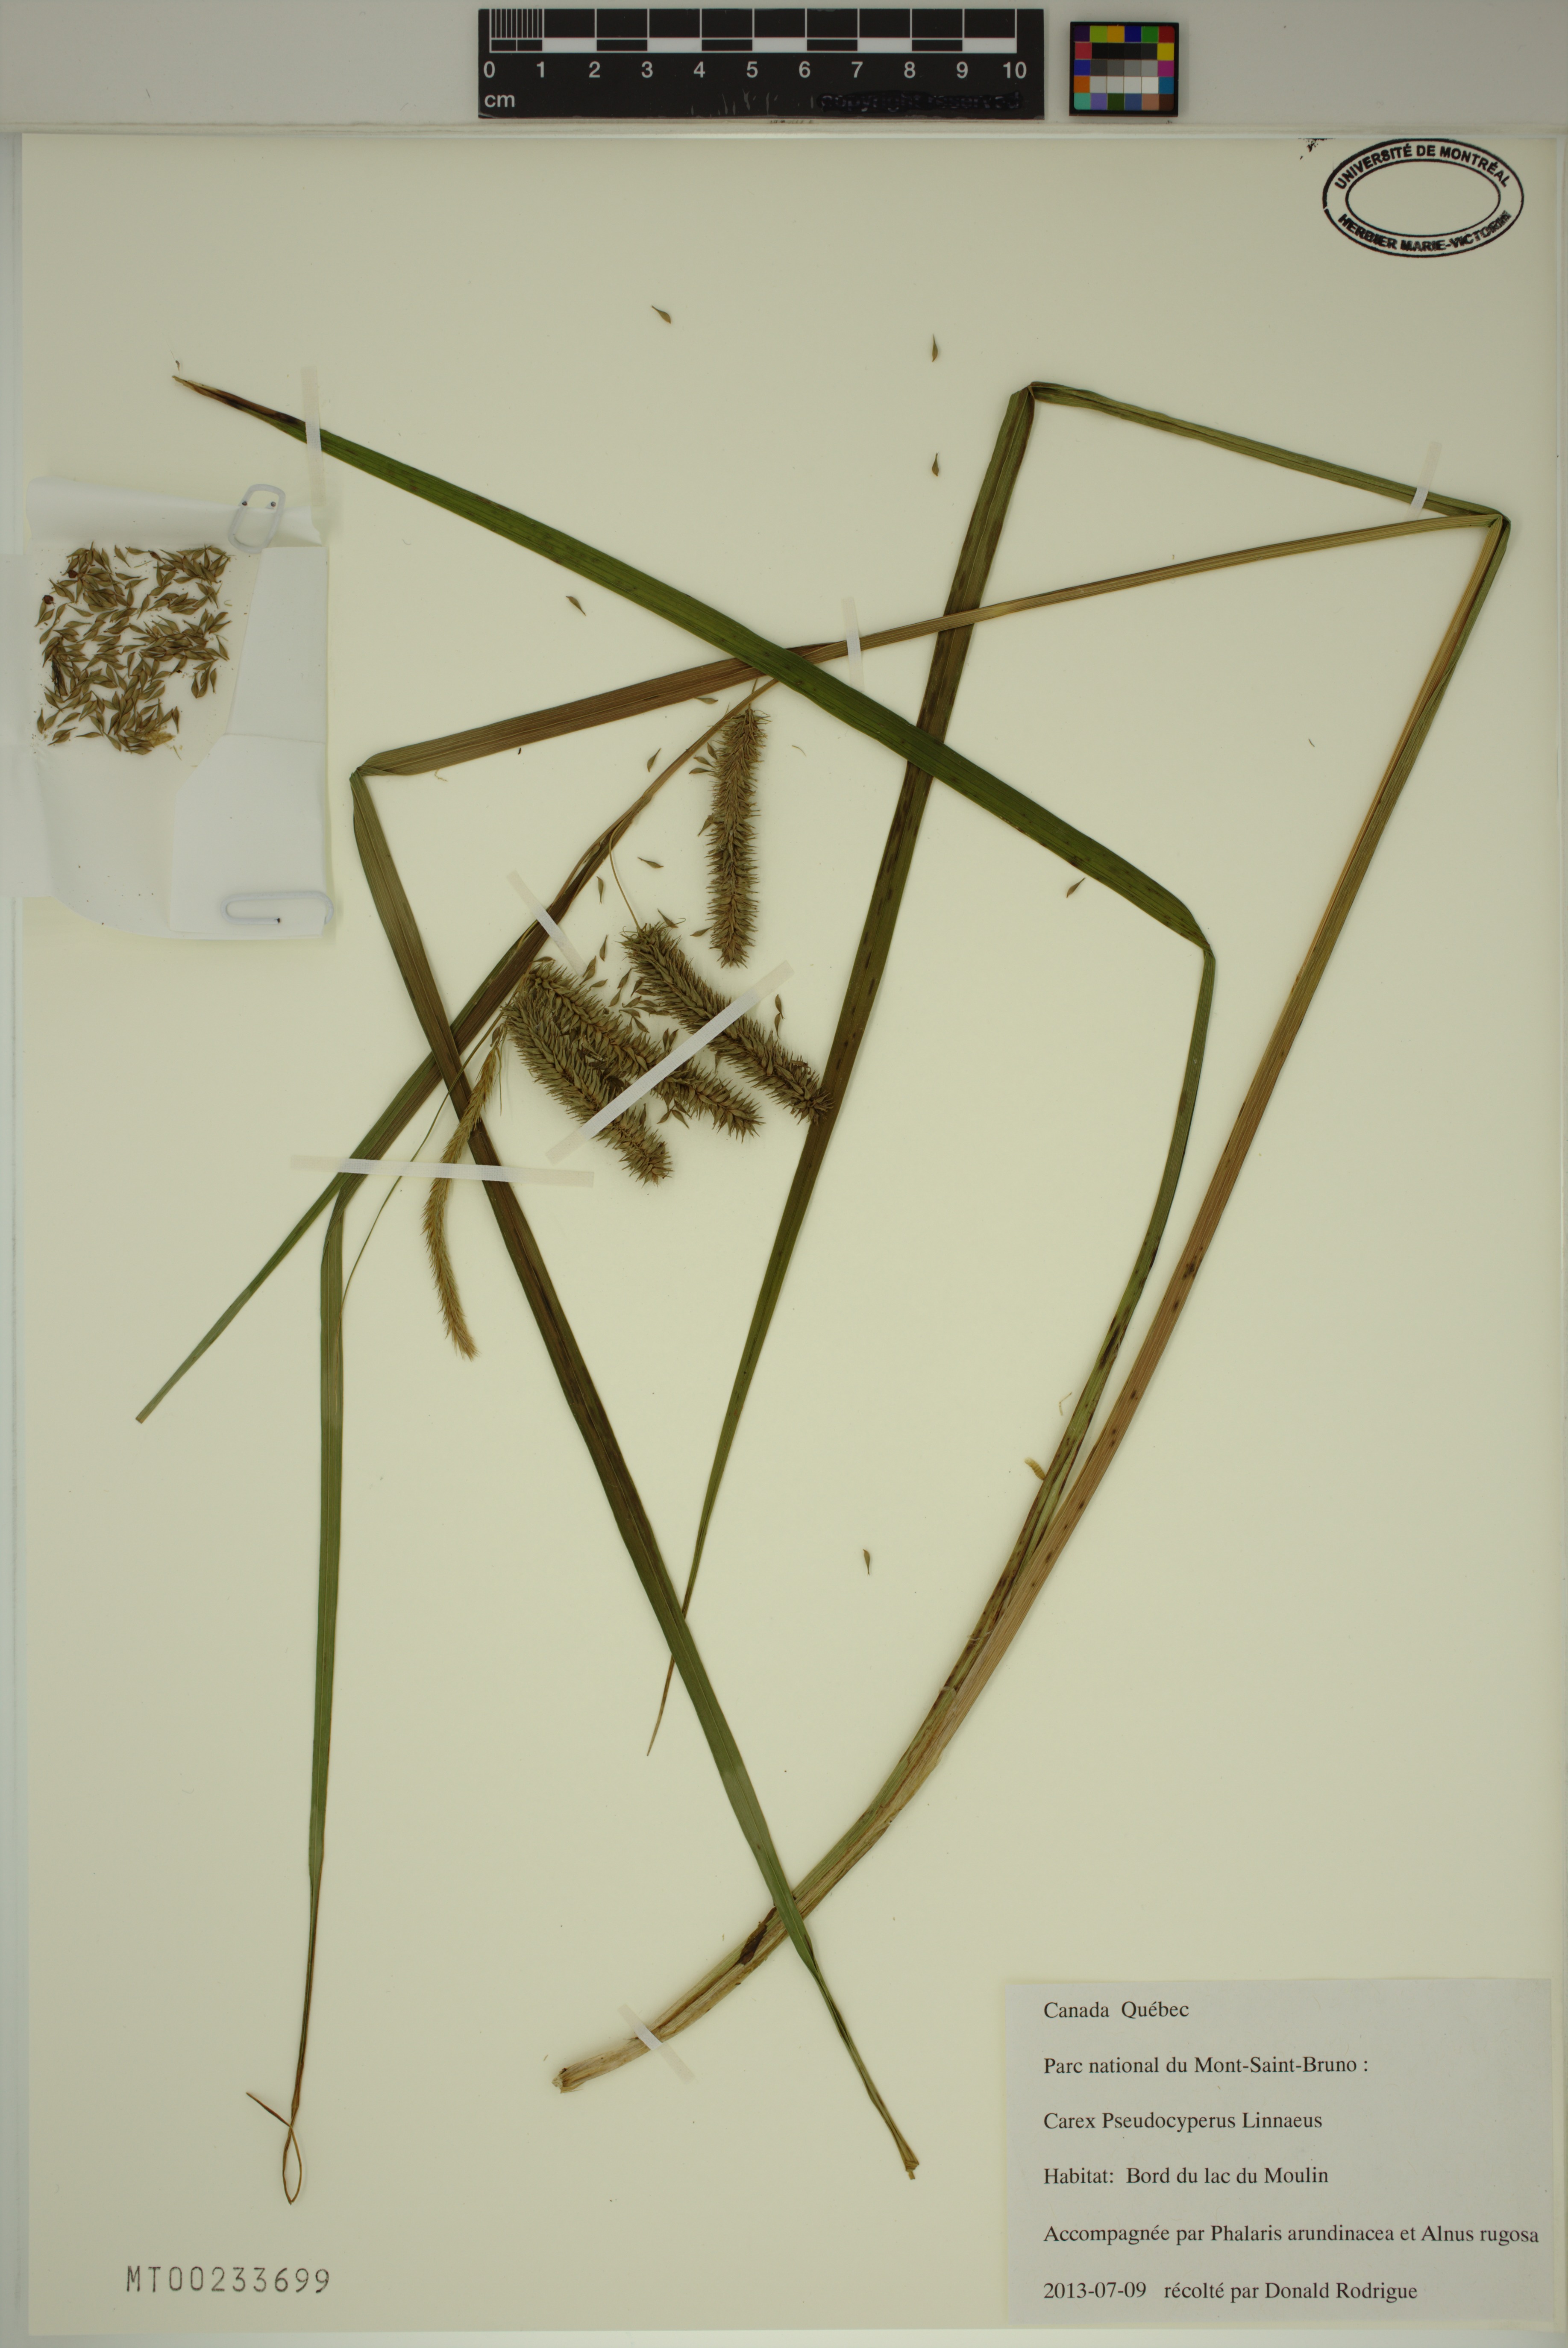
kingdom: Plantae
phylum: Tracheophyta
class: Liliopsida
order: Poales
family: Cyperaceae
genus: Carex
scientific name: Carex pseudocyperus
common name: Cyperus sedge
